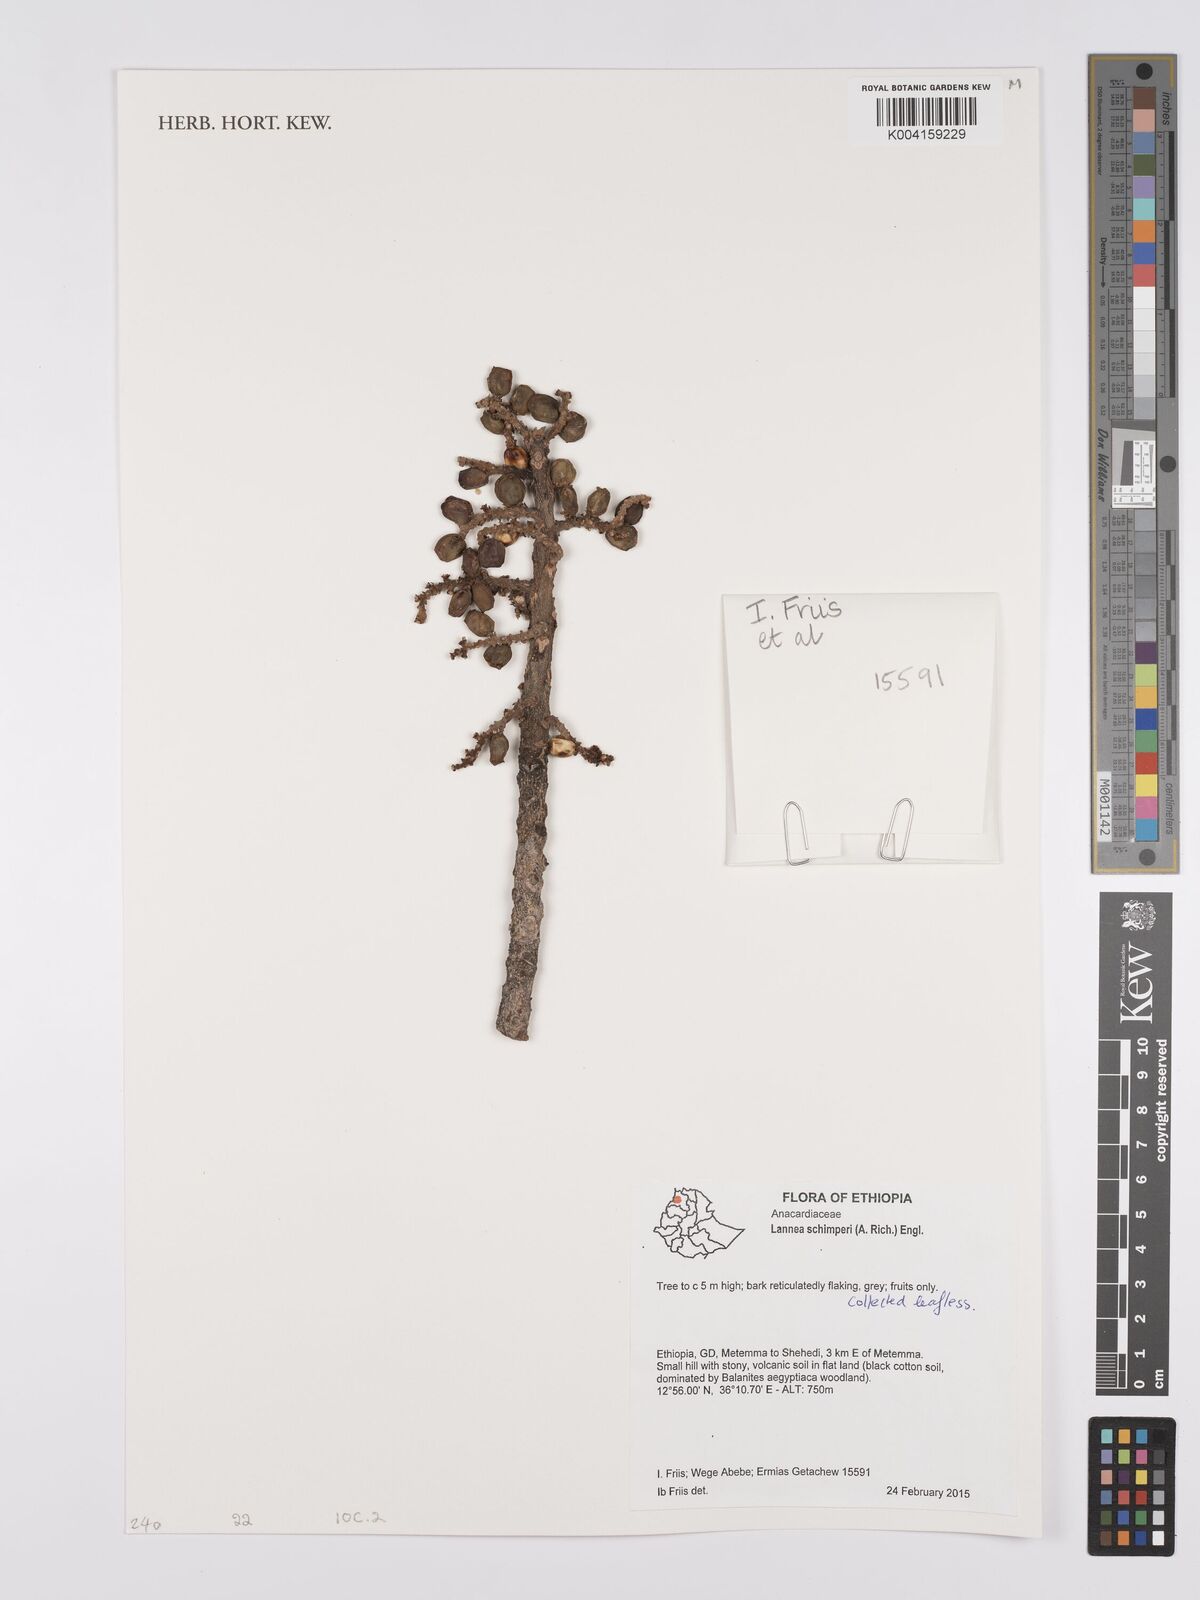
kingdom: Plantae
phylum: Tracheophyta
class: Magnoliopsida
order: Sapindales
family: Anacardiaceae
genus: Lannea
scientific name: Lannea schimperi
